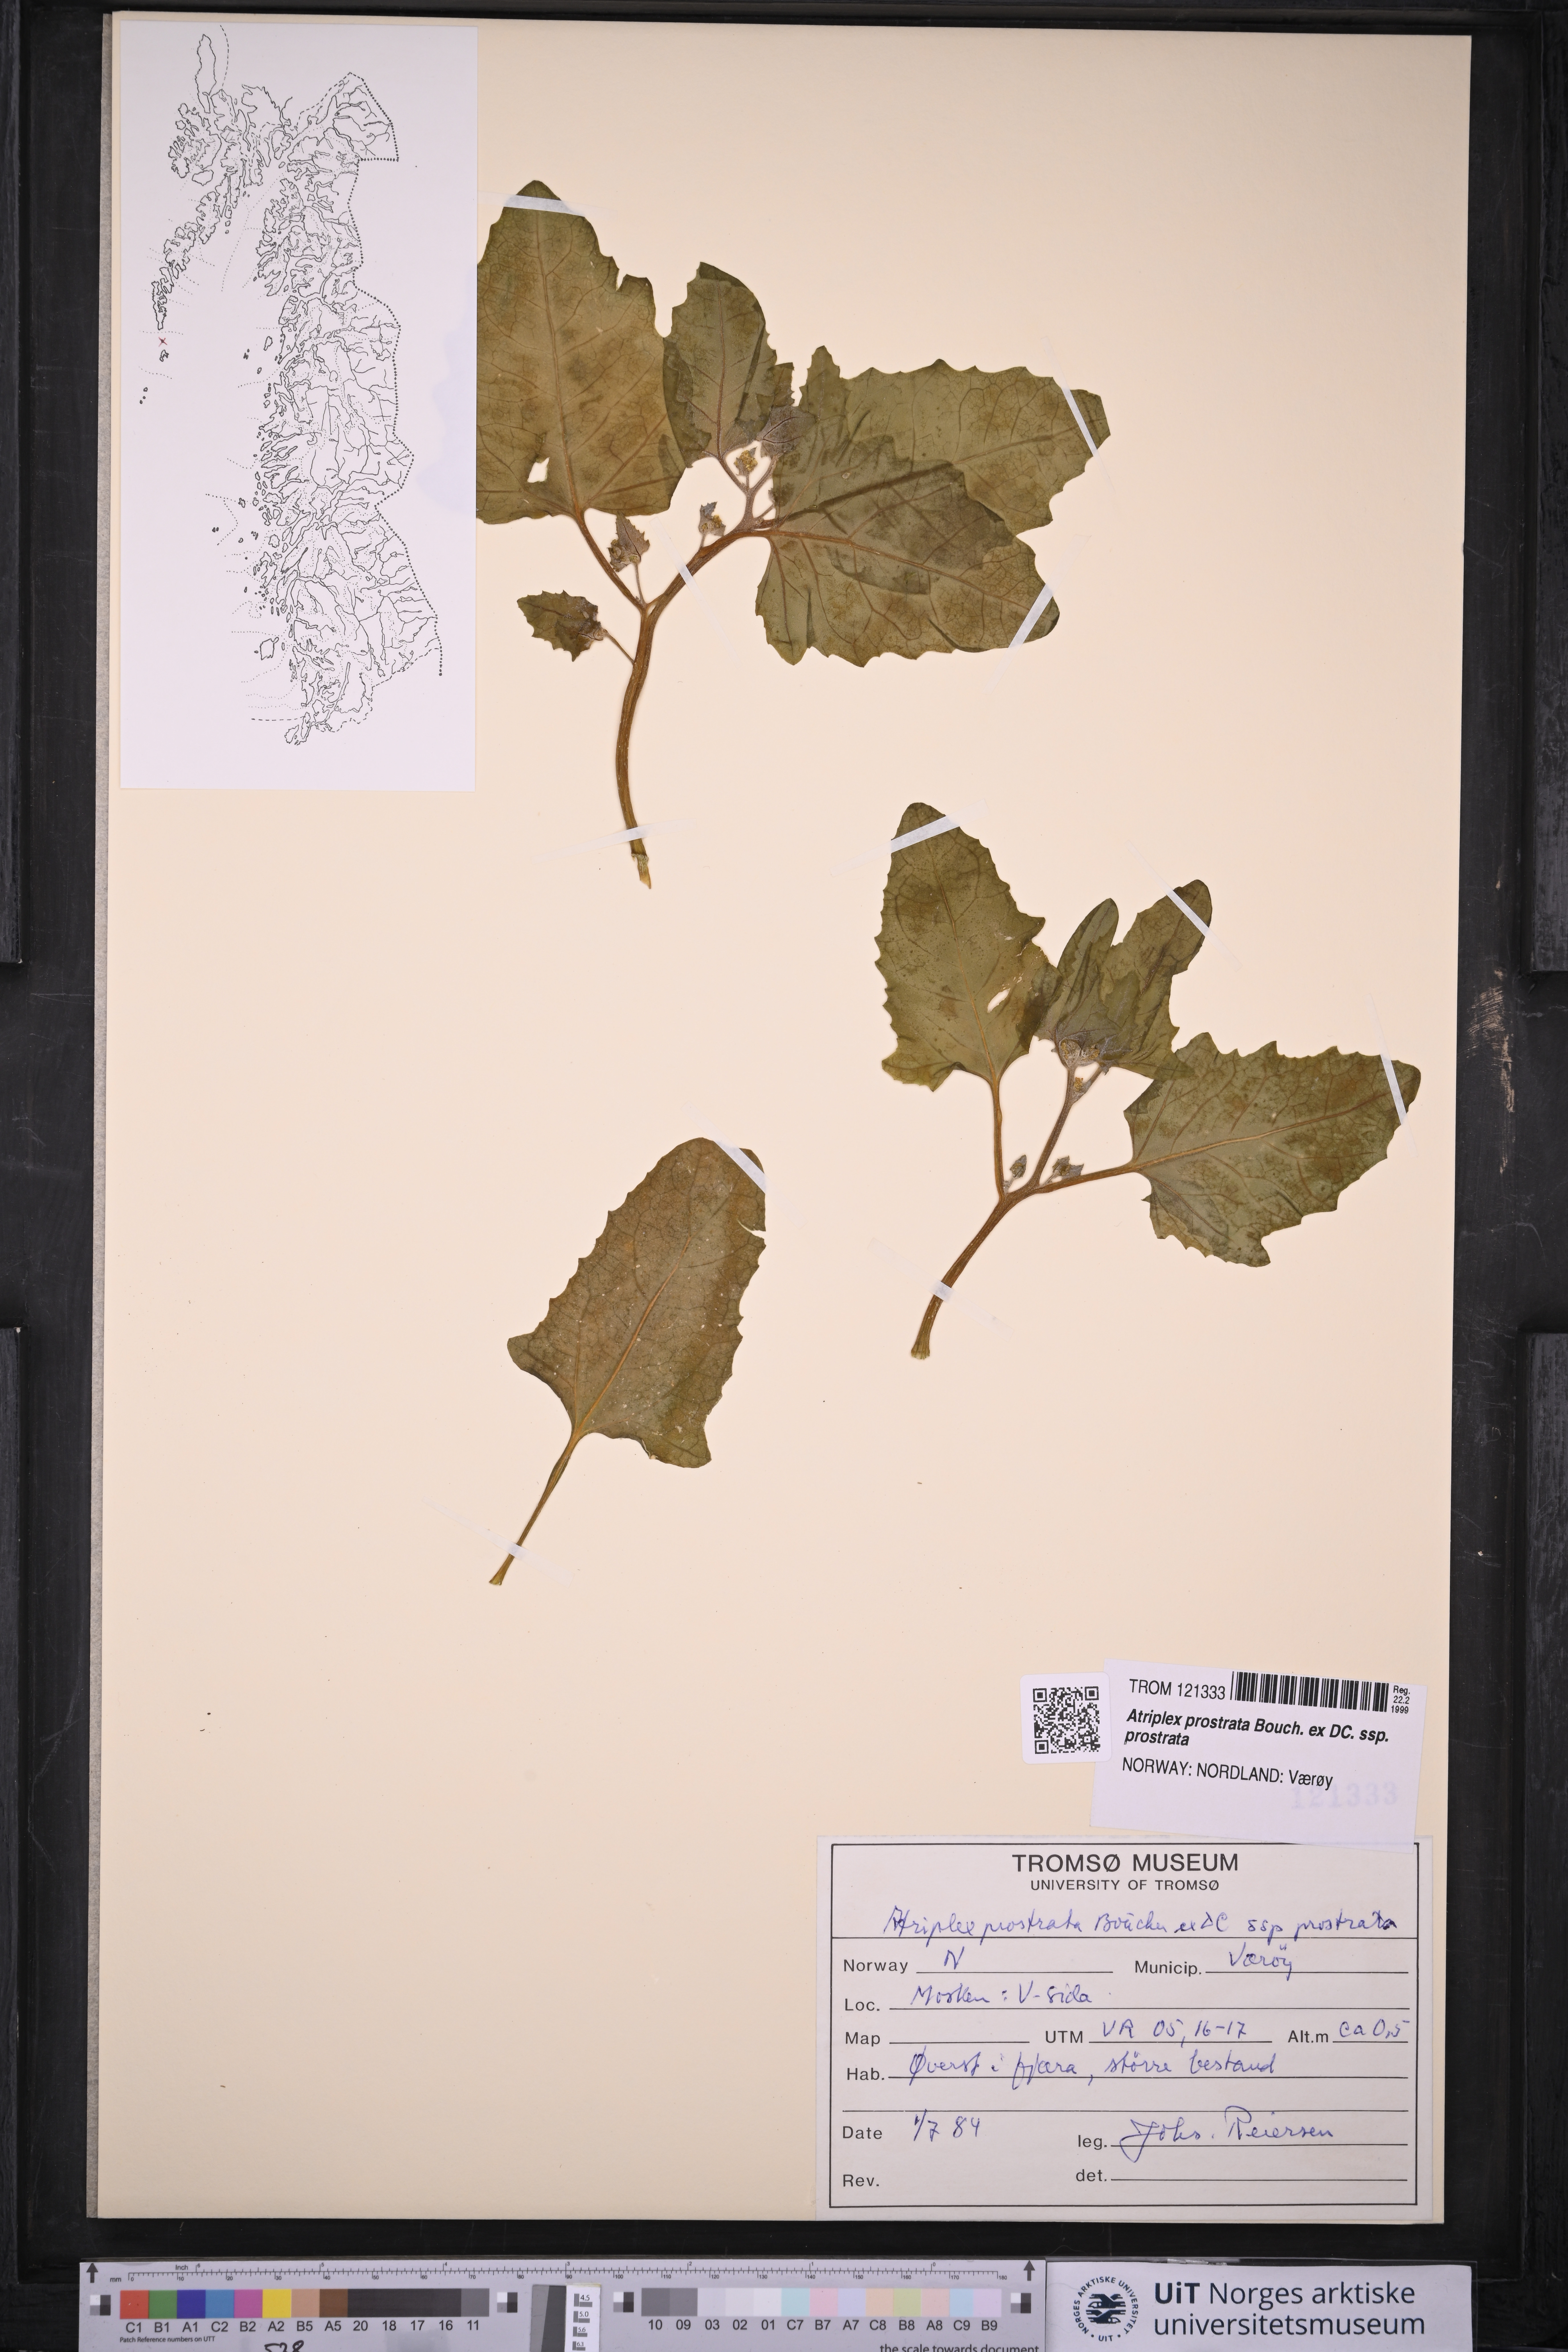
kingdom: Plantae
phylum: Tracheophyta
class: Magnoliopsida
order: Caryophyllales
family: Amaranthaceae
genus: Atriplex
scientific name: Atriplex prostrata
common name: Spear-leaved orache
